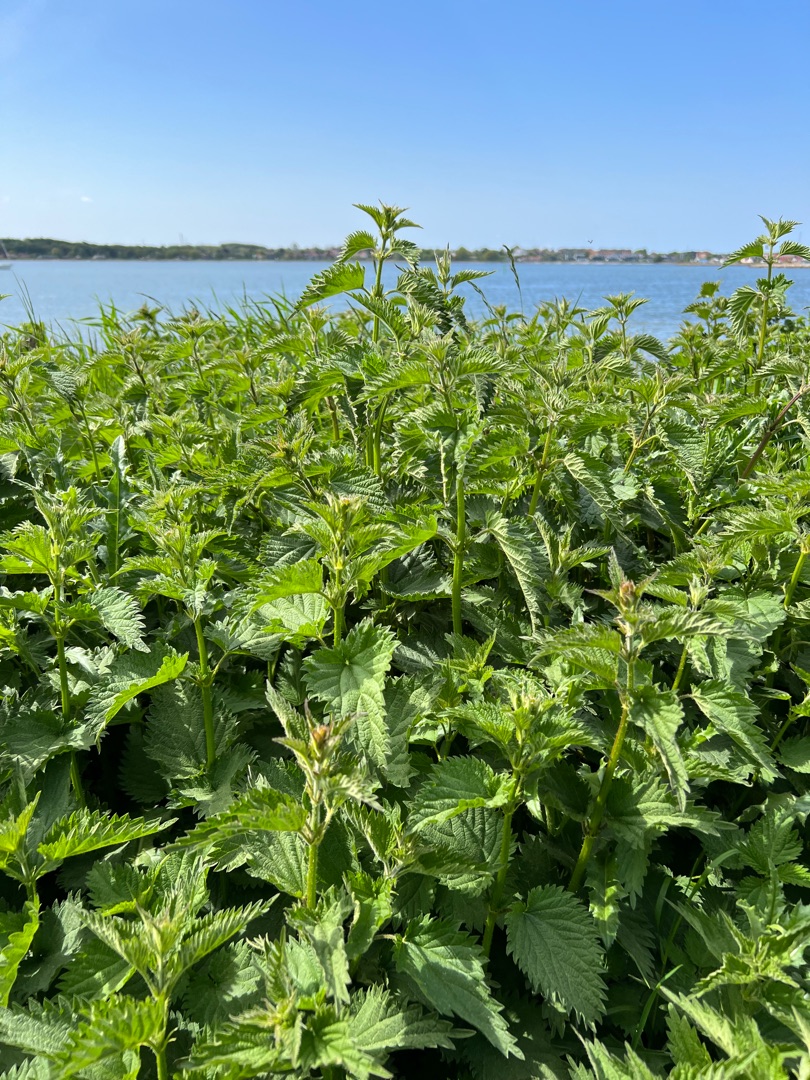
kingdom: Plantae
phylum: Tracheophyta
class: Magnoliopsida
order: Rosales
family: Urticaceae
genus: Urtica
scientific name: Urtica dioica
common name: Stor nælde
